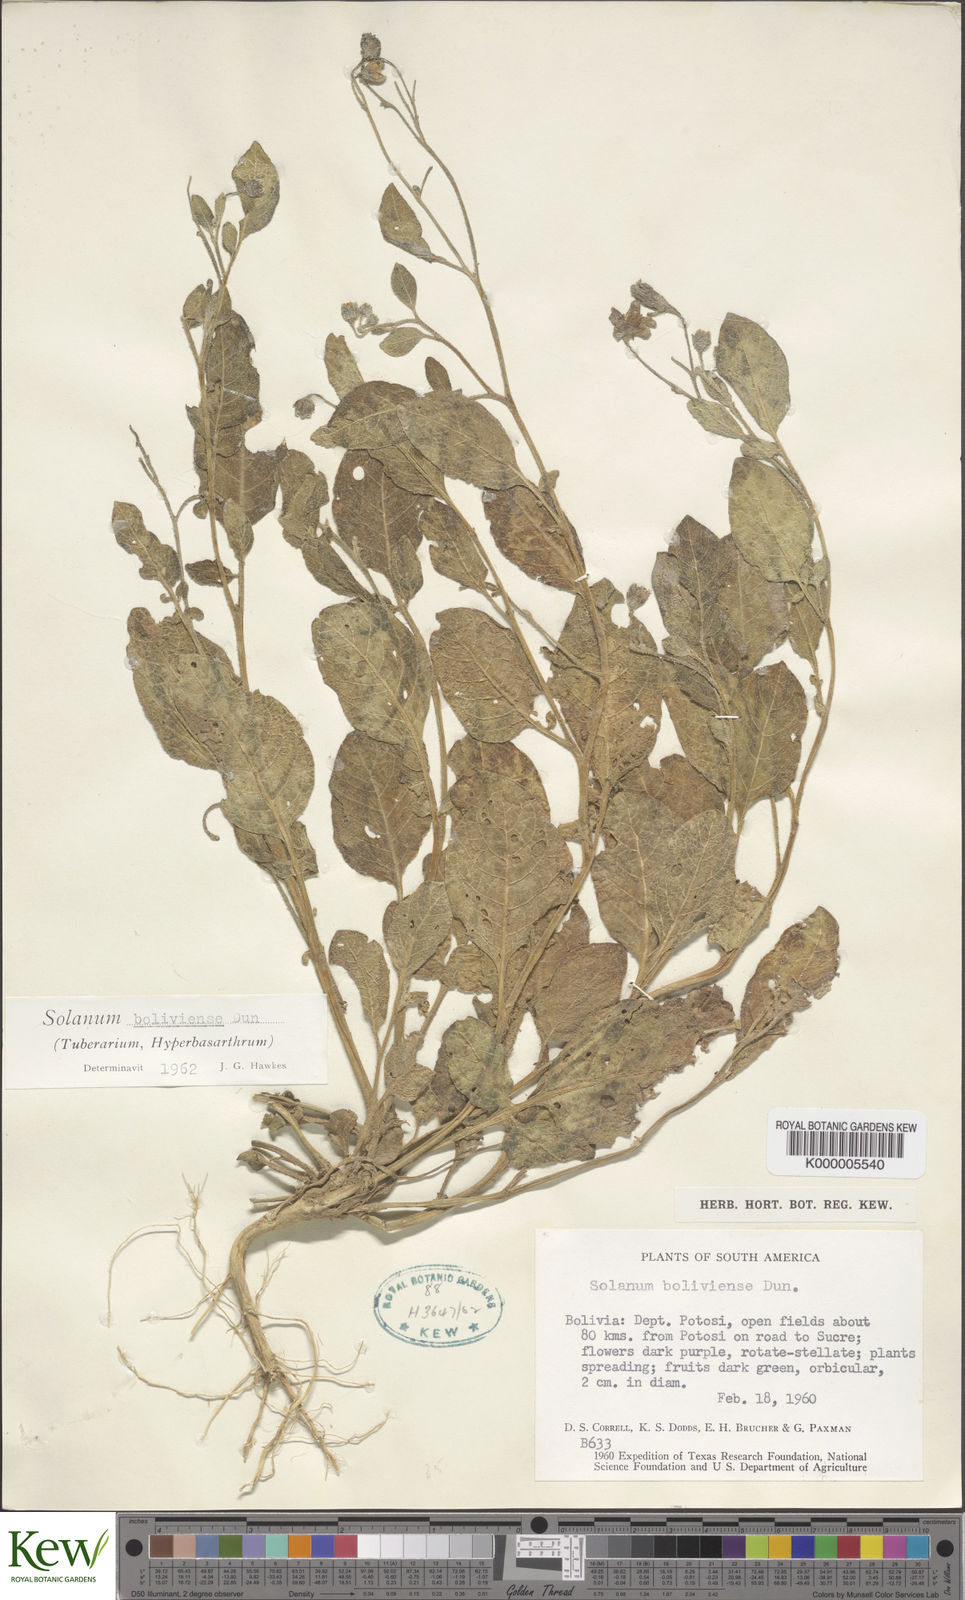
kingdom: Plantae
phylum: Tracheophyta
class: Magnoliopsida
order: Solanales
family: Solanaceae
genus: Solanum
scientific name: Solanum boliviense
